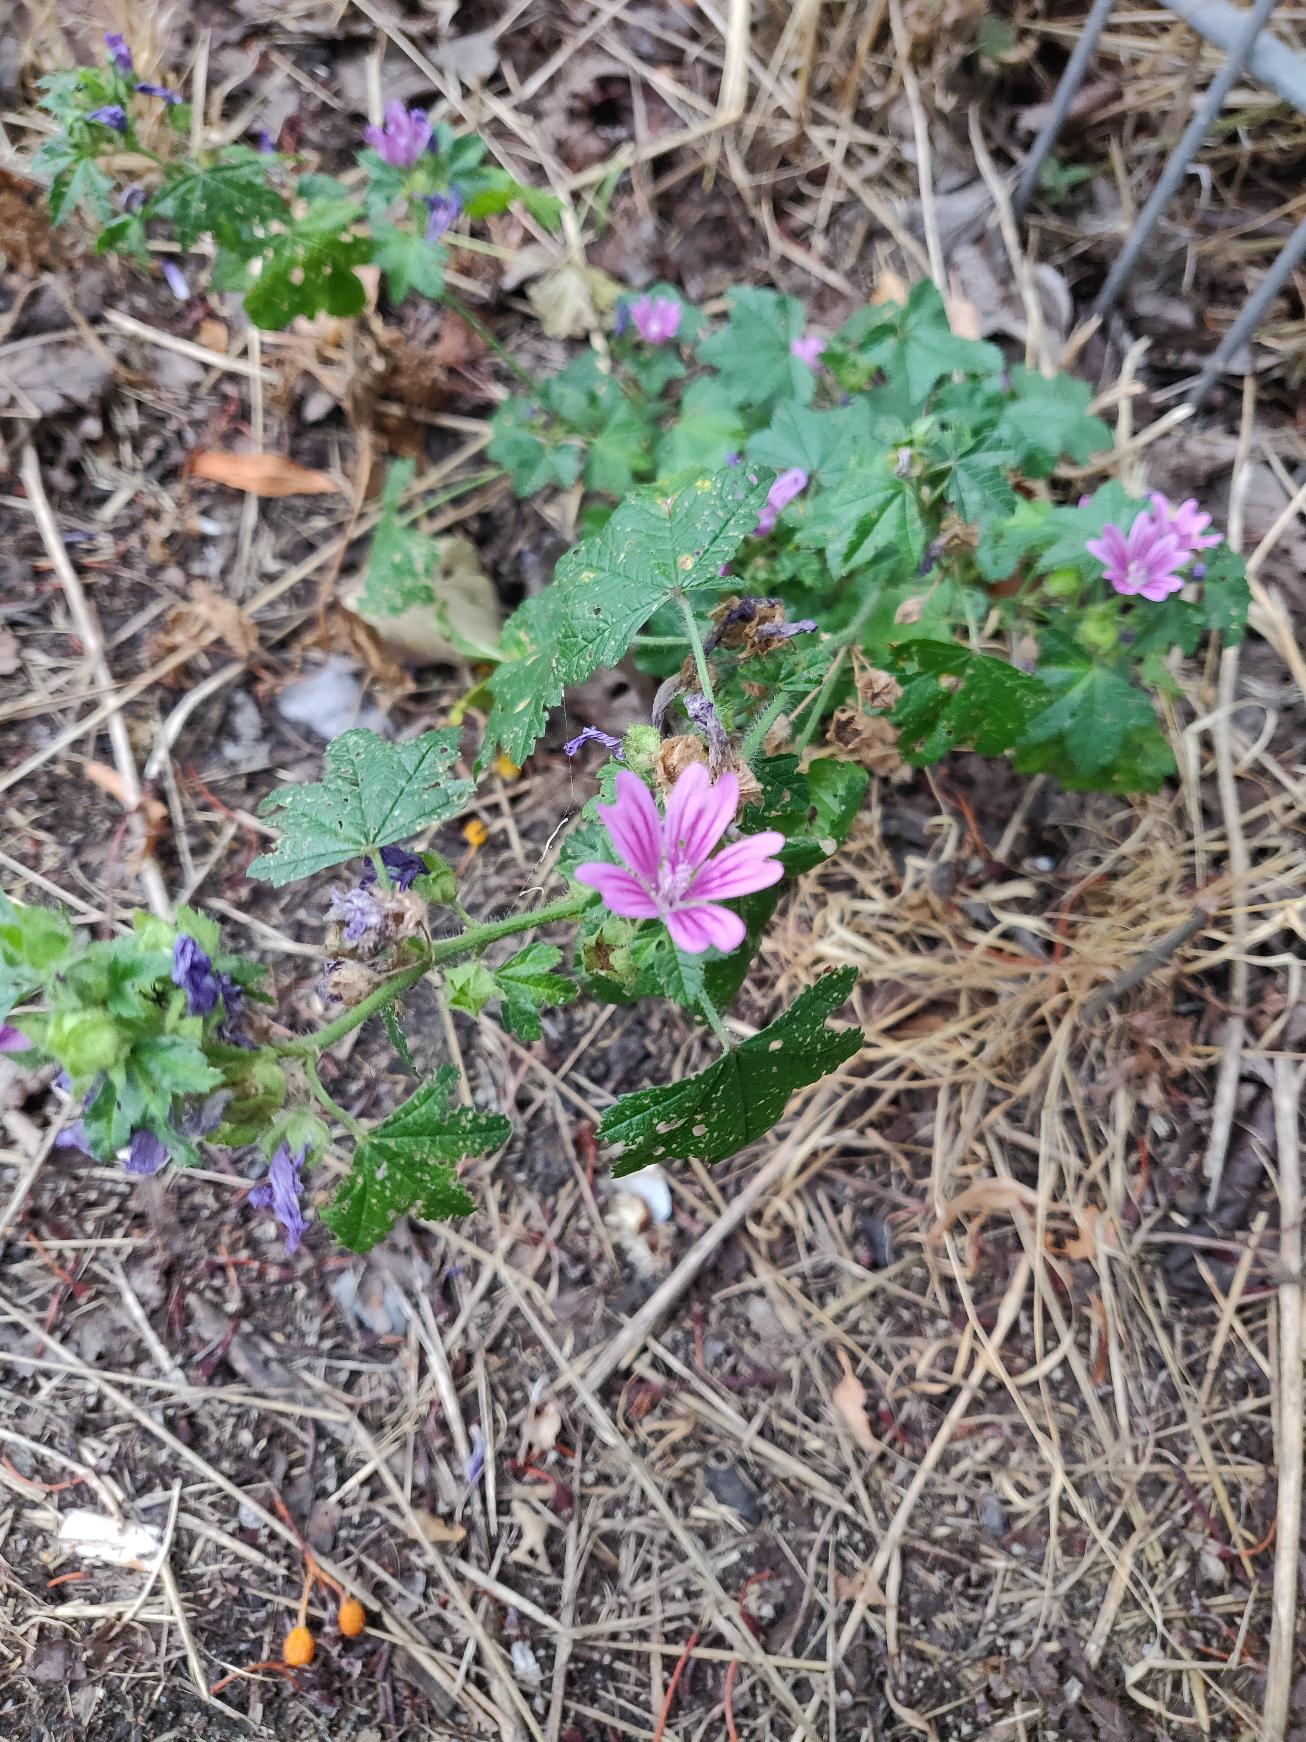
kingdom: Plantae
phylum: Tracheophyta
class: Magnoliopsida
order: Malvales
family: Malvaceae
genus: Malva
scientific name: Malva sylvestris
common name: Almindelig katost
